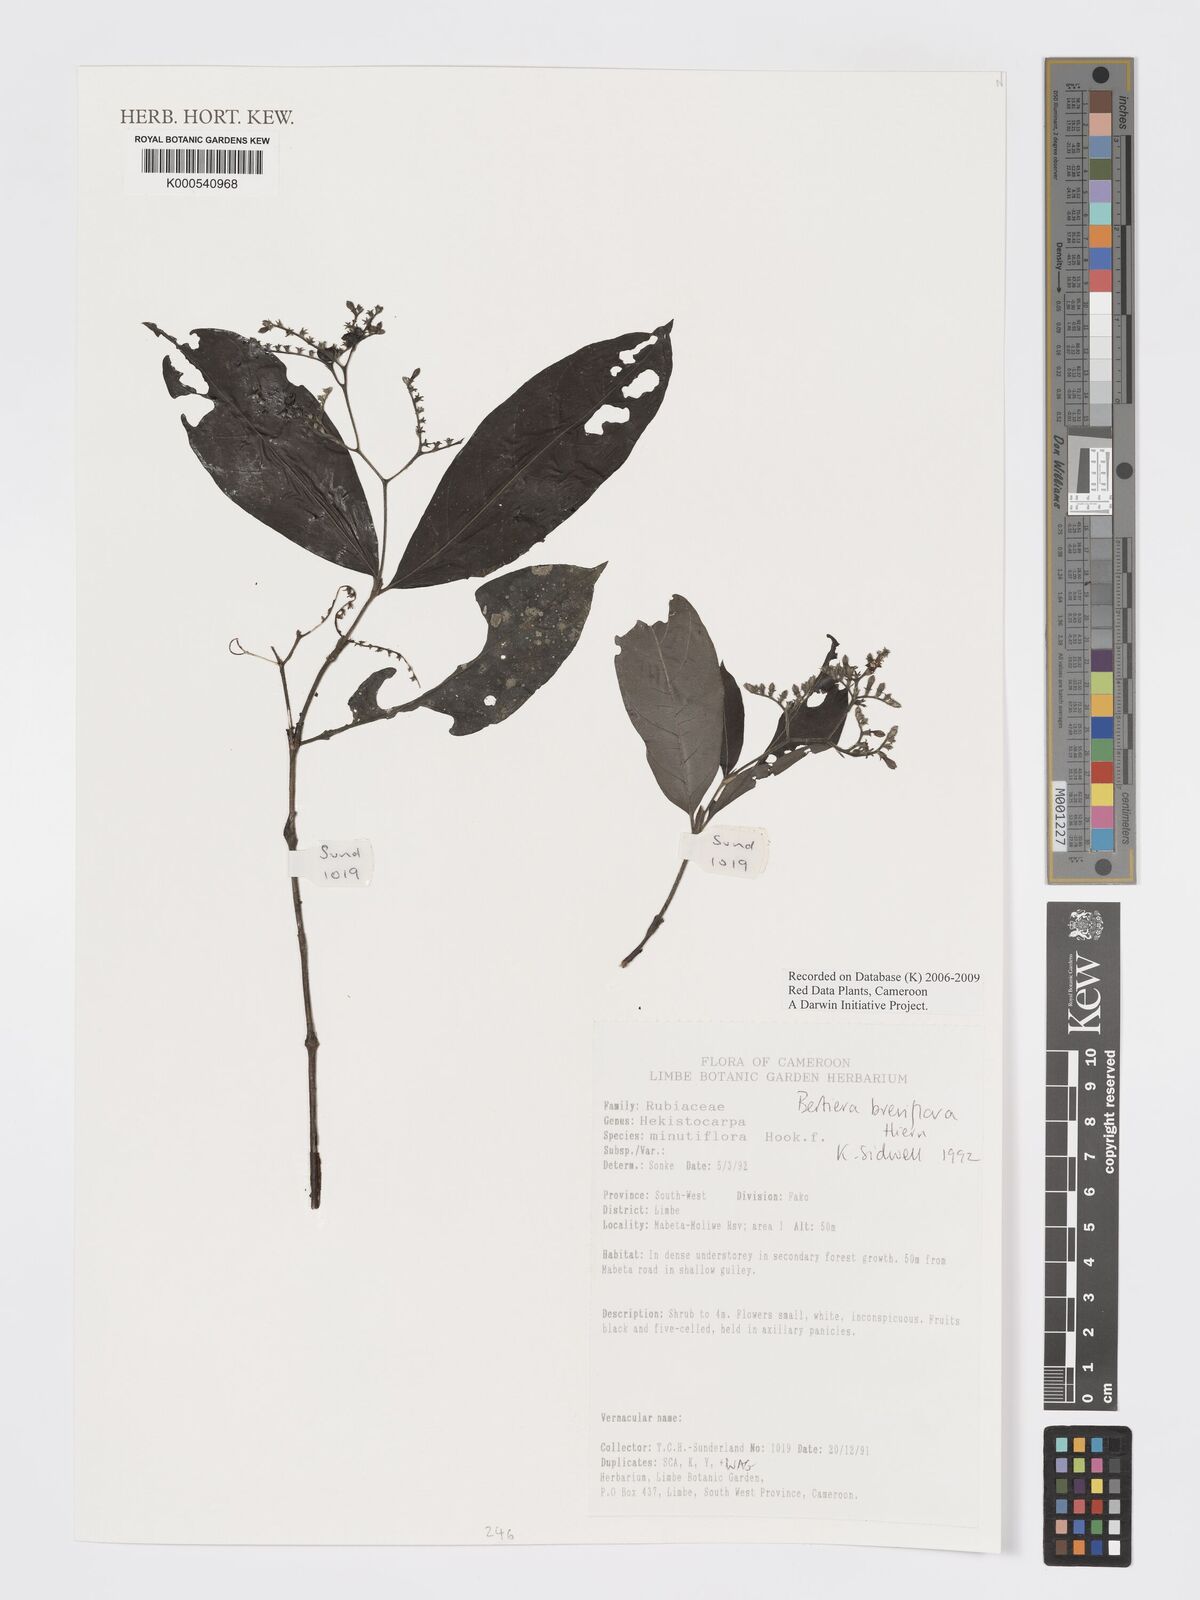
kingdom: Plantae
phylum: Tracheophyta
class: Magnoliopsida
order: Gentianales
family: Rubiaceae
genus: Bertiera
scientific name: Bertiera breviflora
